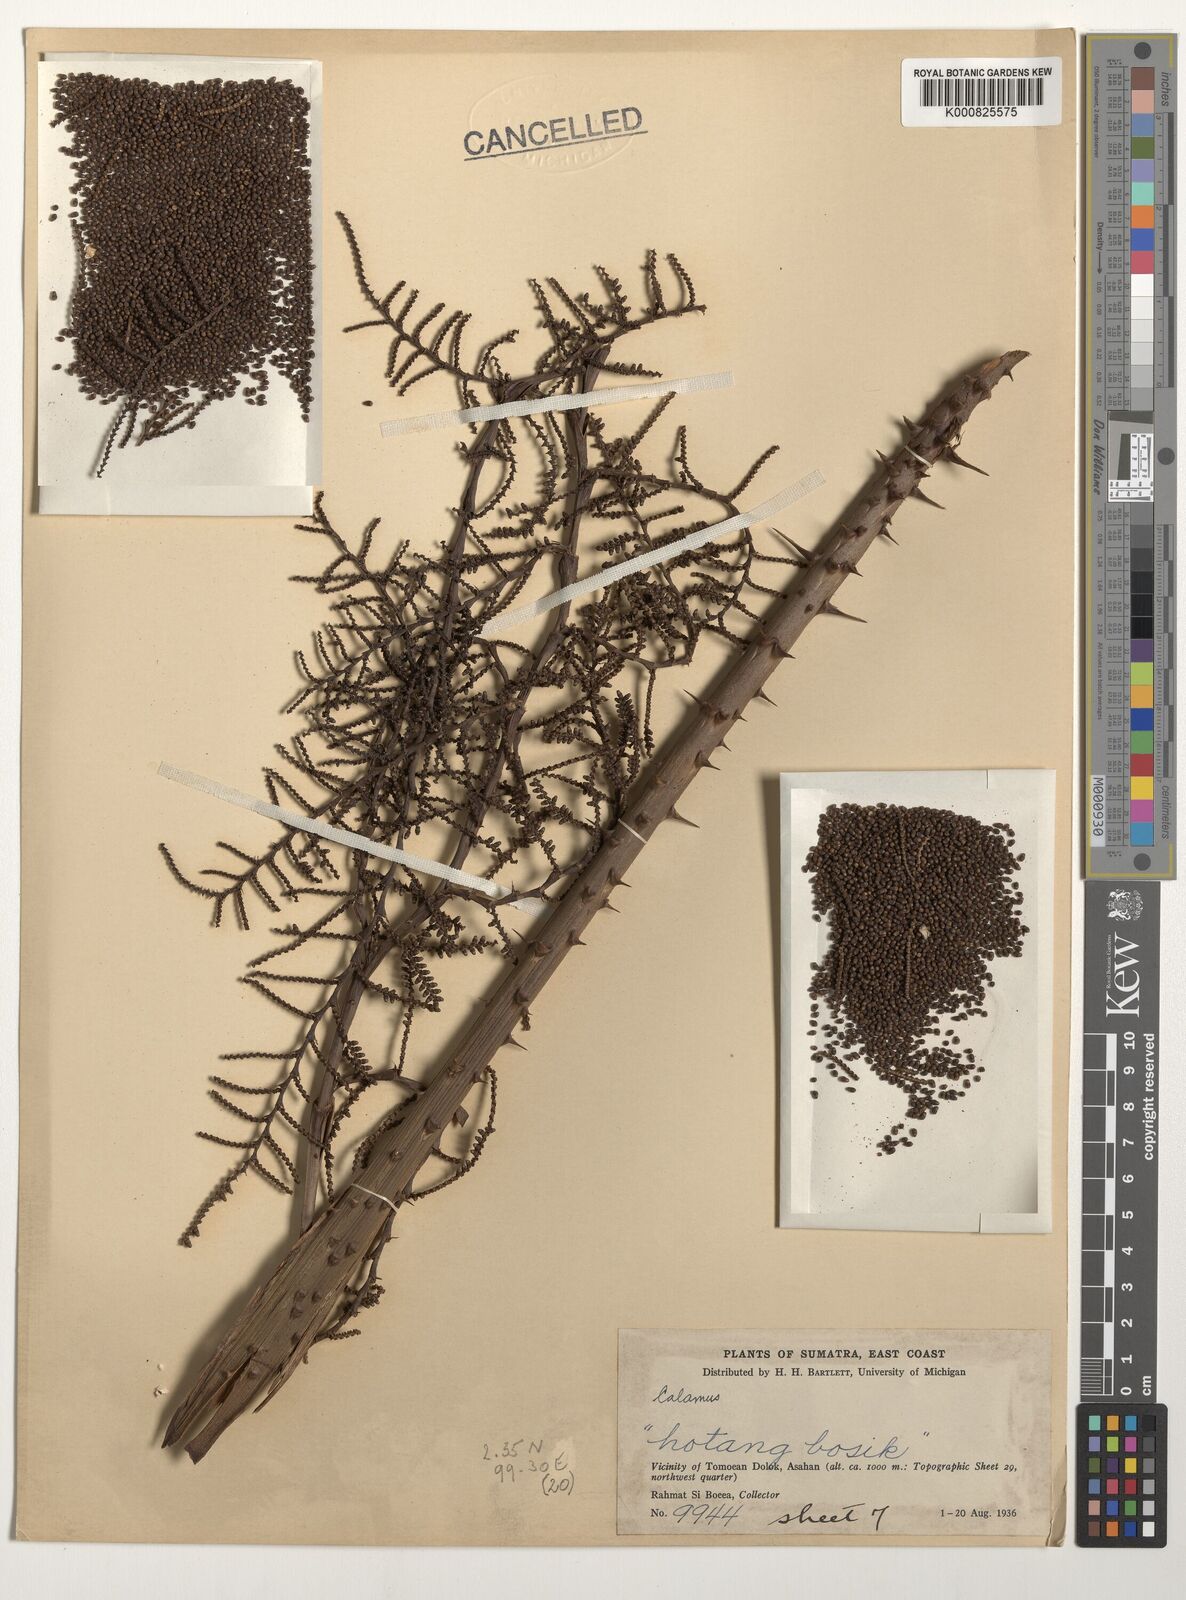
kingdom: Plantae
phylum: Tracheophyta
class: Liliopsida
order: Arecales
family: Arecaceae
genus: Calamus
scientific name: Calamus
